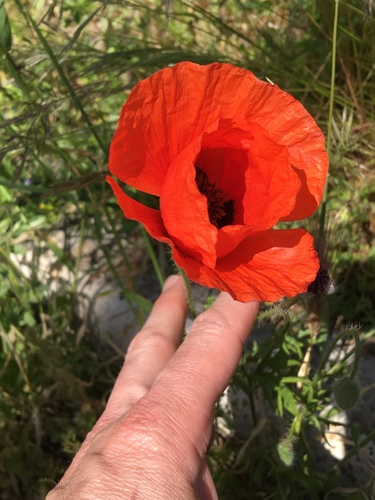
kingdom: Plantae
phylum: Tracheophyta
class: Magnoliopsida
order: Ranunculales
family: Papaveraceae
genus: Papaver
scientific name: Papaver rhoeas
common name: Corn poppy
